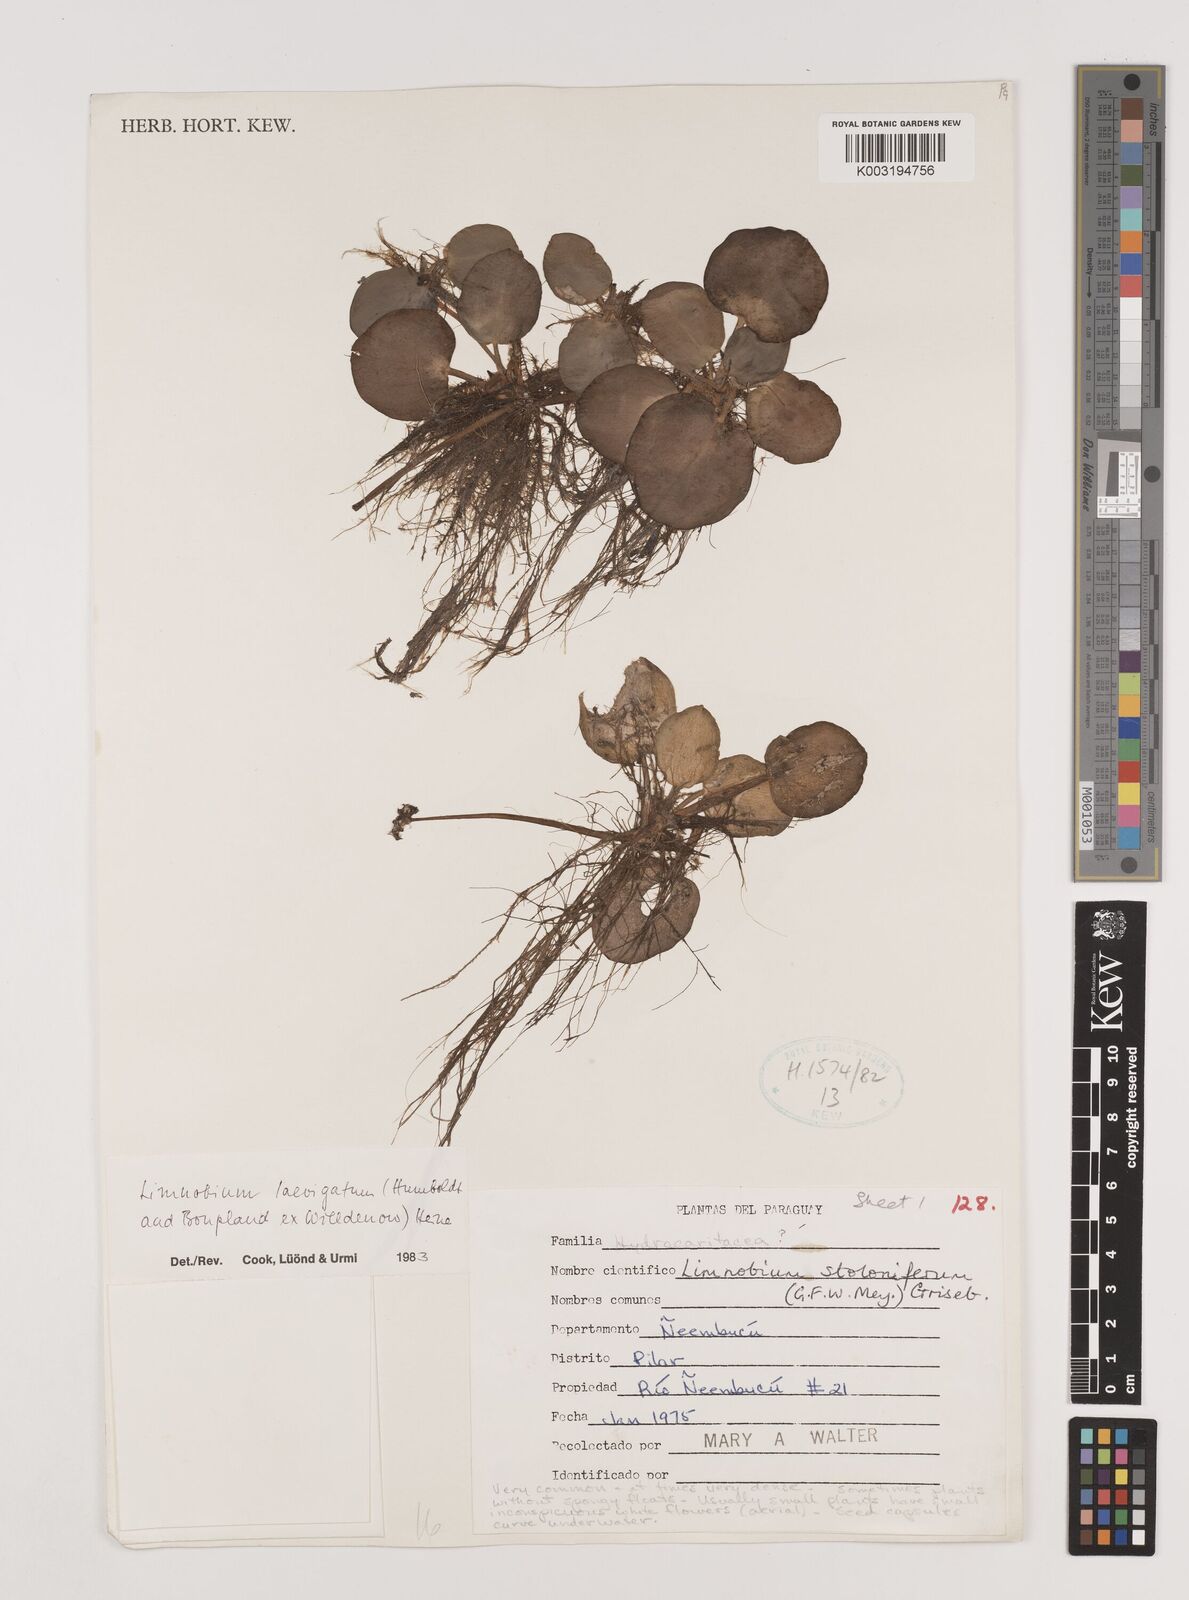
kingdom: Plantae
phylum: Tracheophyta
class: Liliopsida
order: Alismatales
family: Hydrocharitaceae
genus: Hydrocharis
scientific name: Hydrocharis laevigata
